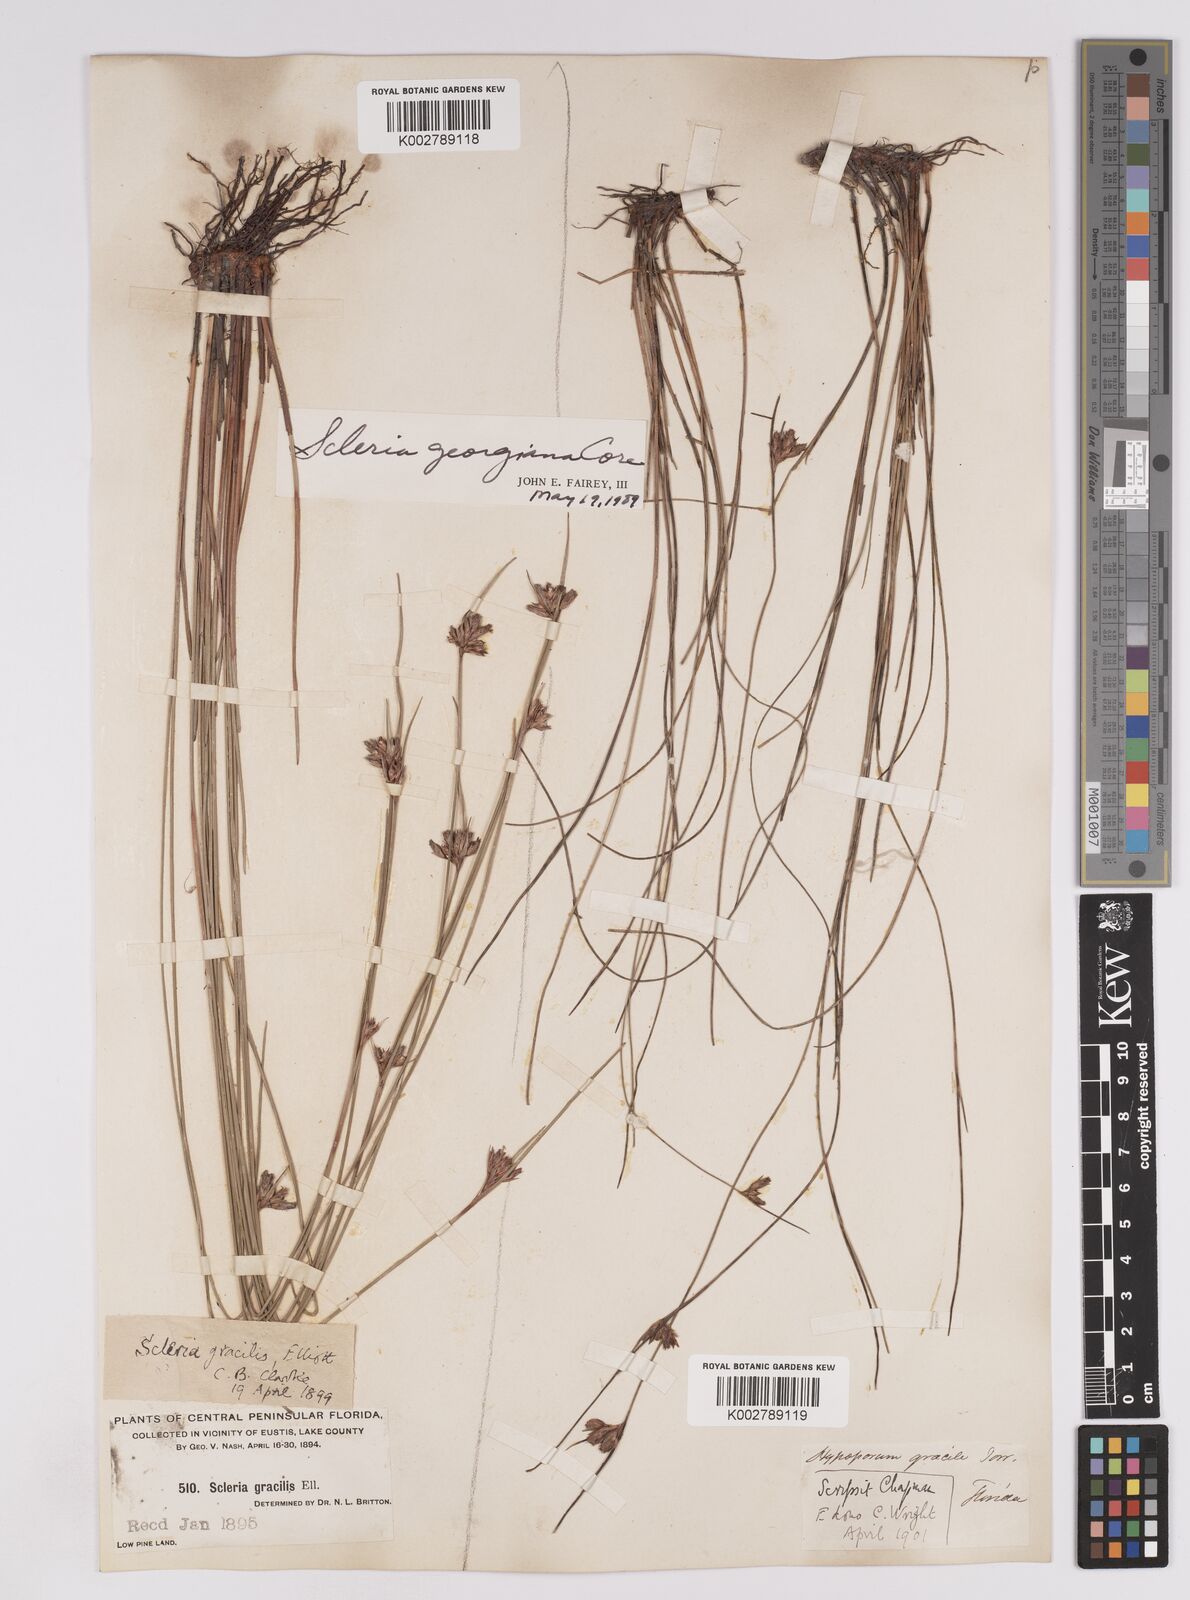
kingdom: Plantae
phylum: Tracheophyta
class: Liliopsida
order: Poales
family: Cyperaceae
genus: Scleria
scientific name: Scleria georgiana
